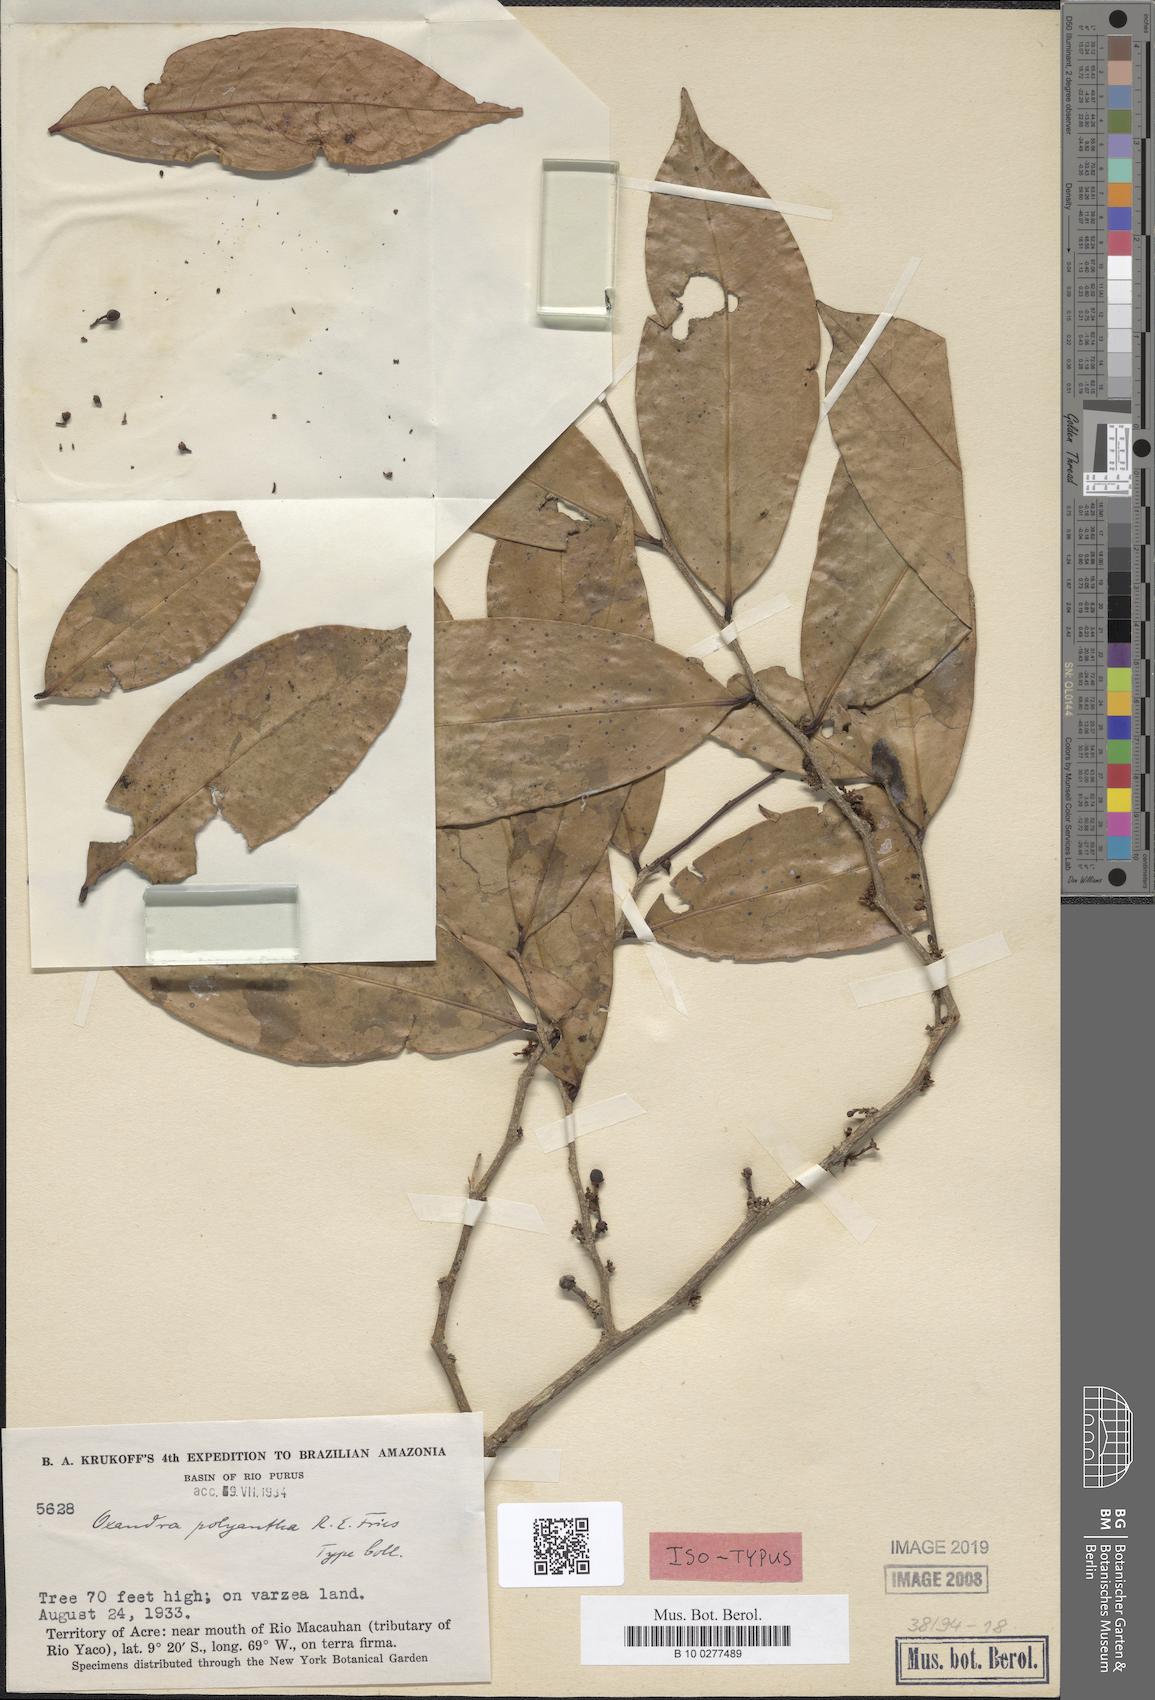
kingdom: Plantae
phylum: Tracheophyta
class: Magnoliopsida
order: Magnoliales
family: Annonaceae
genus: Oxandra
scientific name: Oxandra polyantha
